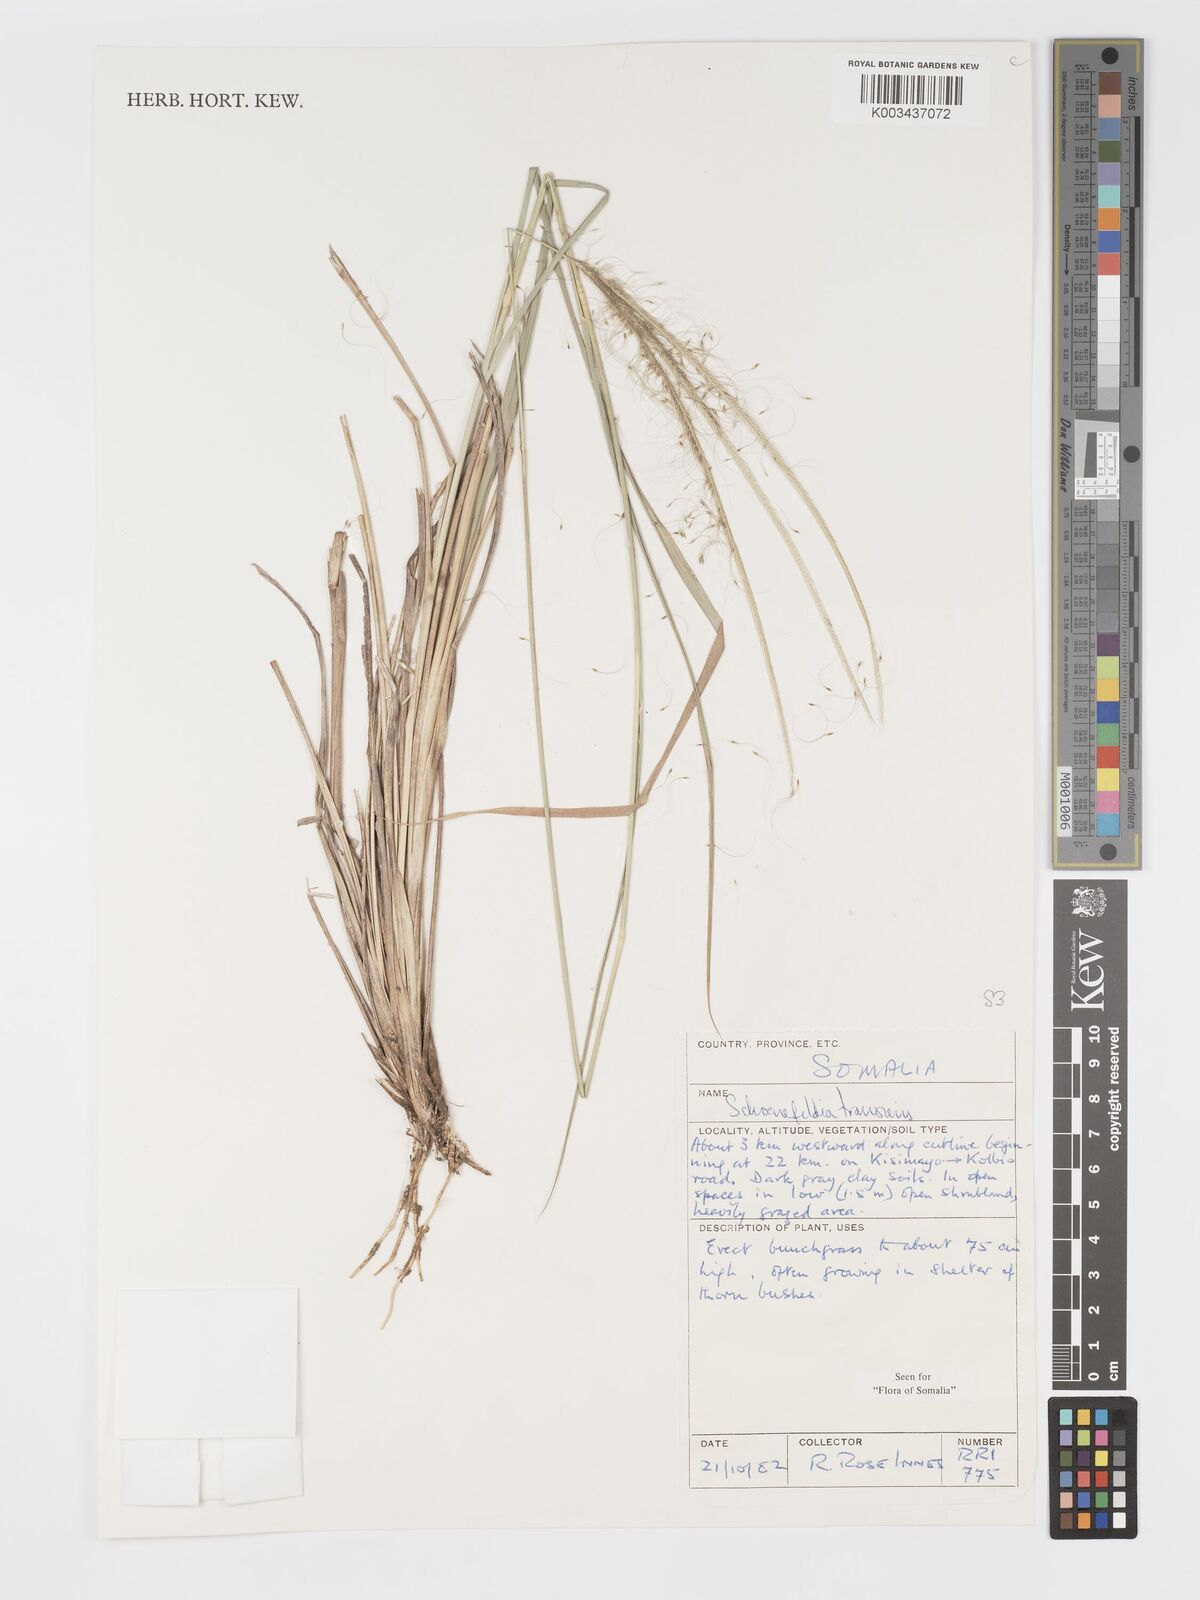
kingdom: Plantae
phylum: Tracheophyta
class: Liliopsida
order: Poales
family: Poaceae
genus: Schoenefeldia
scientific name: Schoenefeldia transiens
